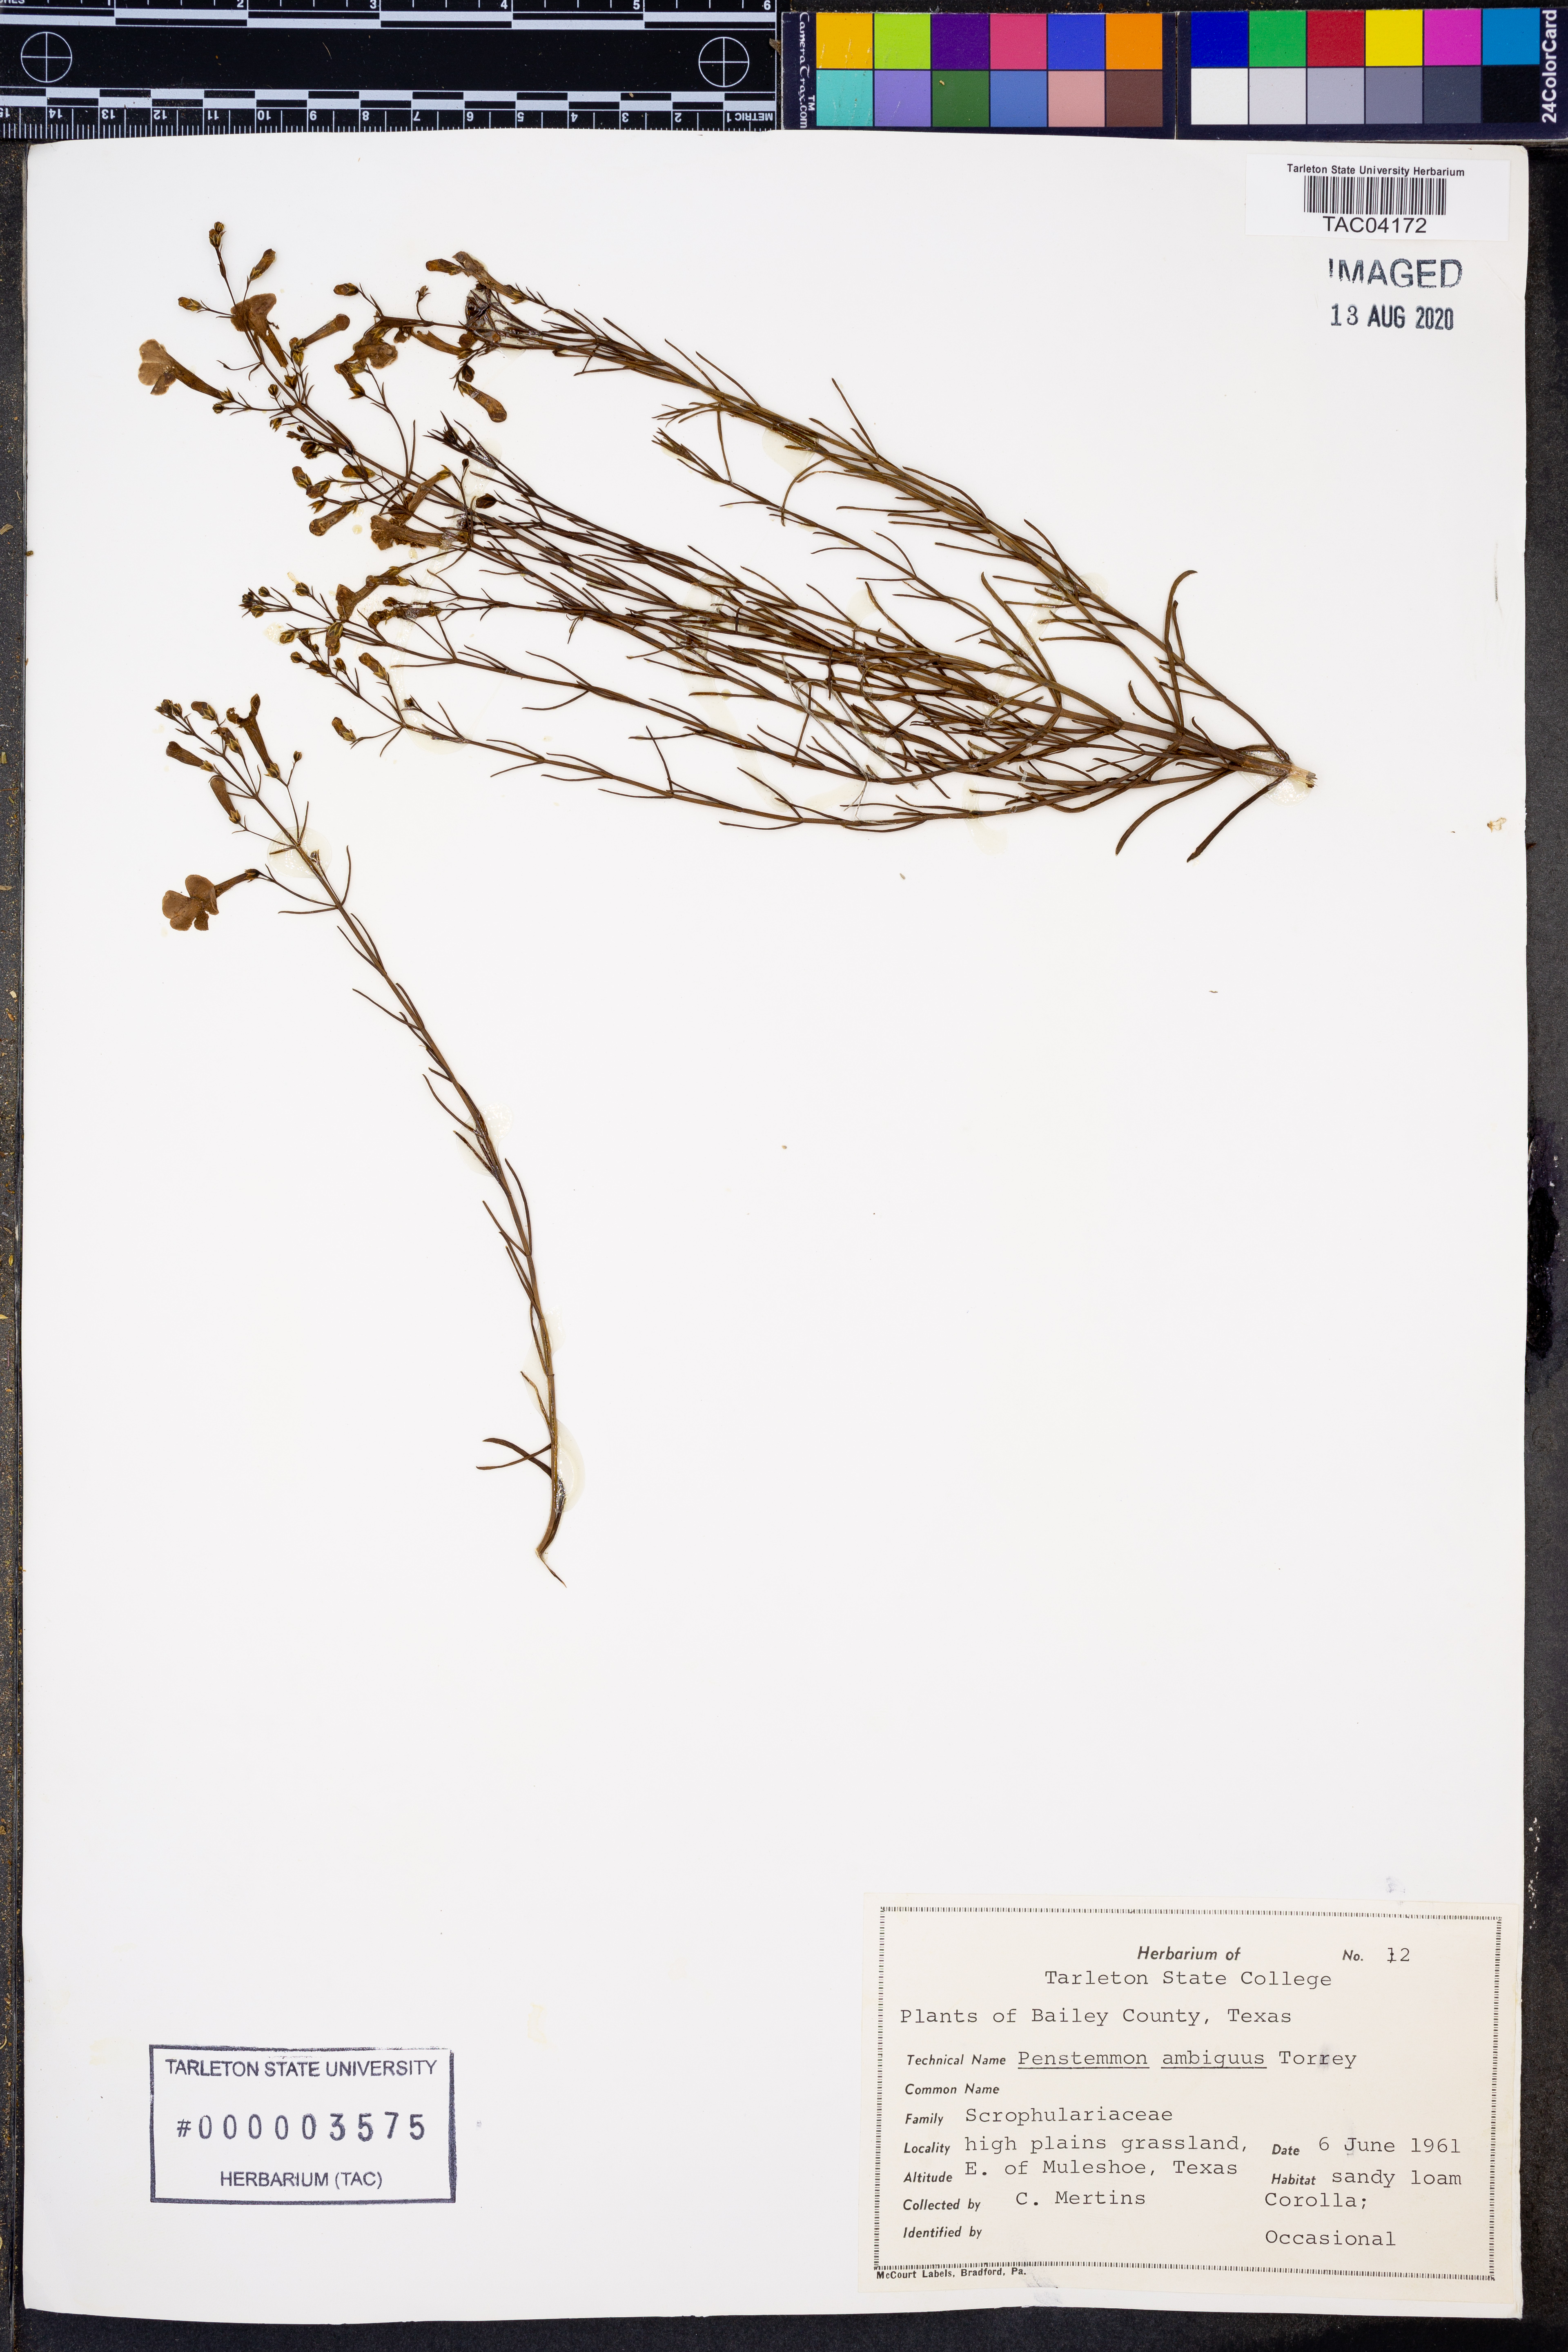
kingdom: Plantae
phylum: Tracheophyta
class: Magnoliopsida
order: Lamiales
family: Plantaginaceae
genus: Penstemon
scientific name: Penstemon ambiguus
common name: Bush penstemon
